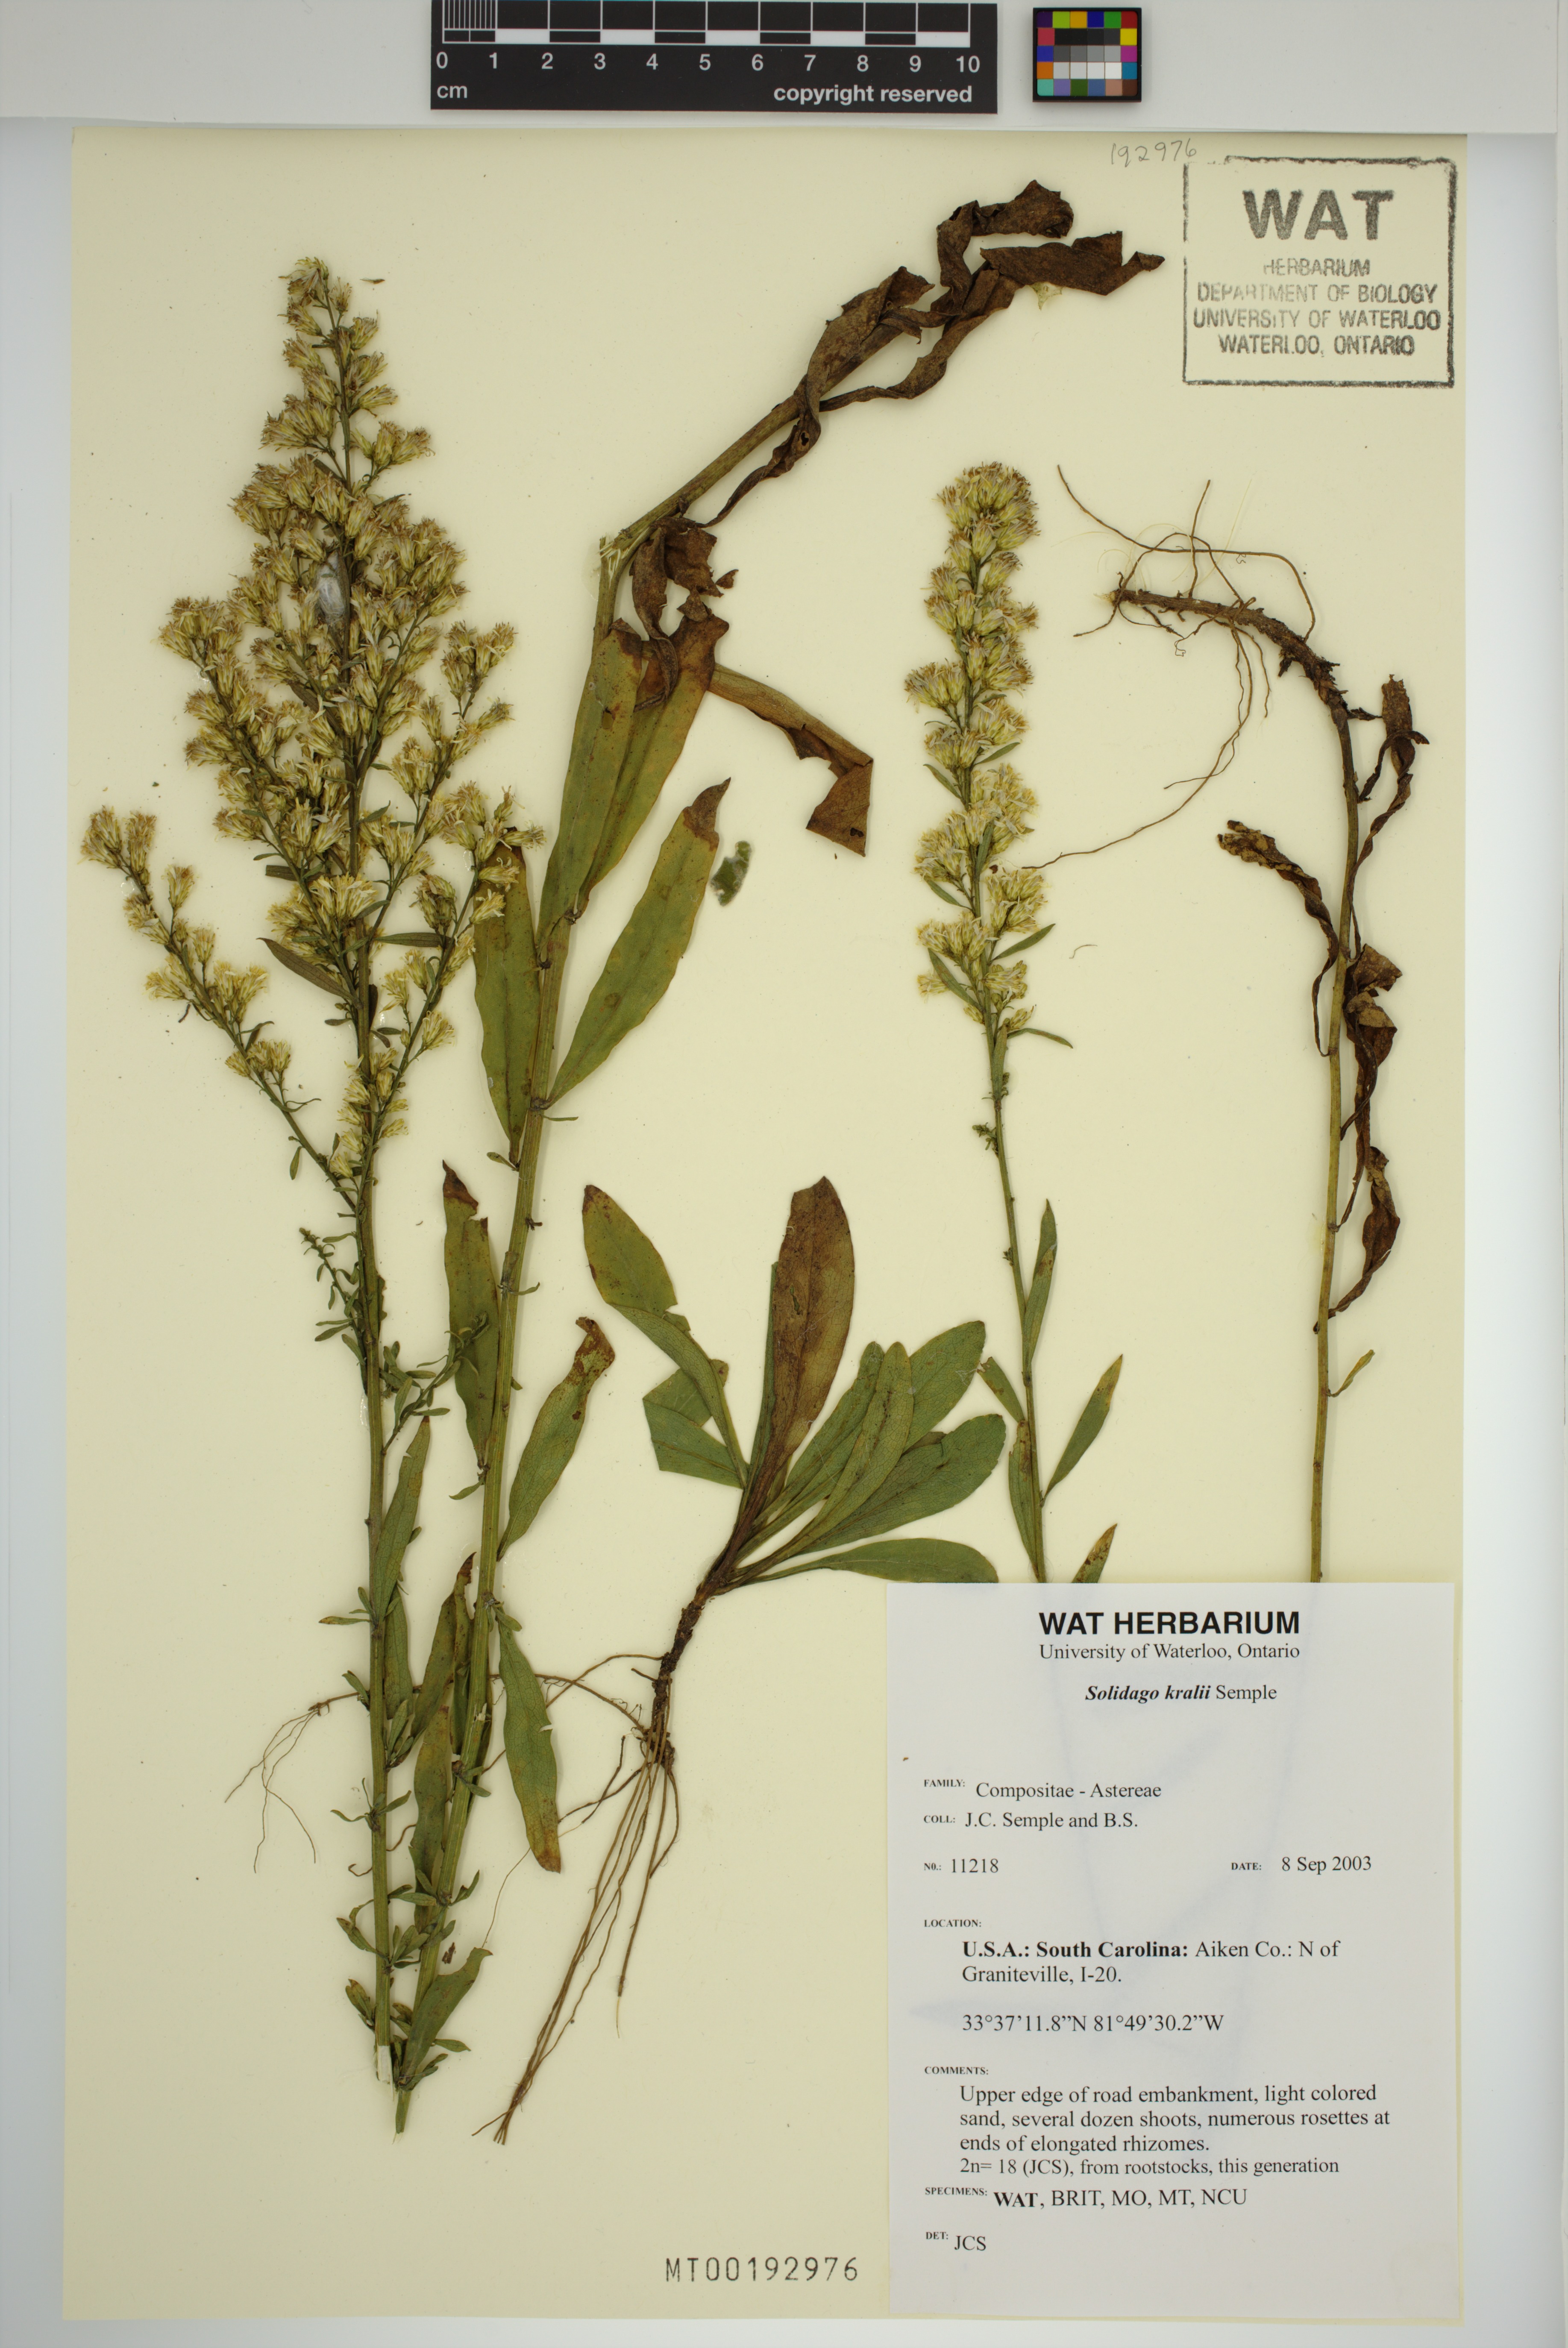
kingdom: Plantae
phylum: Tracheophyta
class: Magnoliopsida
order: Asterales
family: Asteraceae
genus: Solidago
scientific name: Solidago kralii
